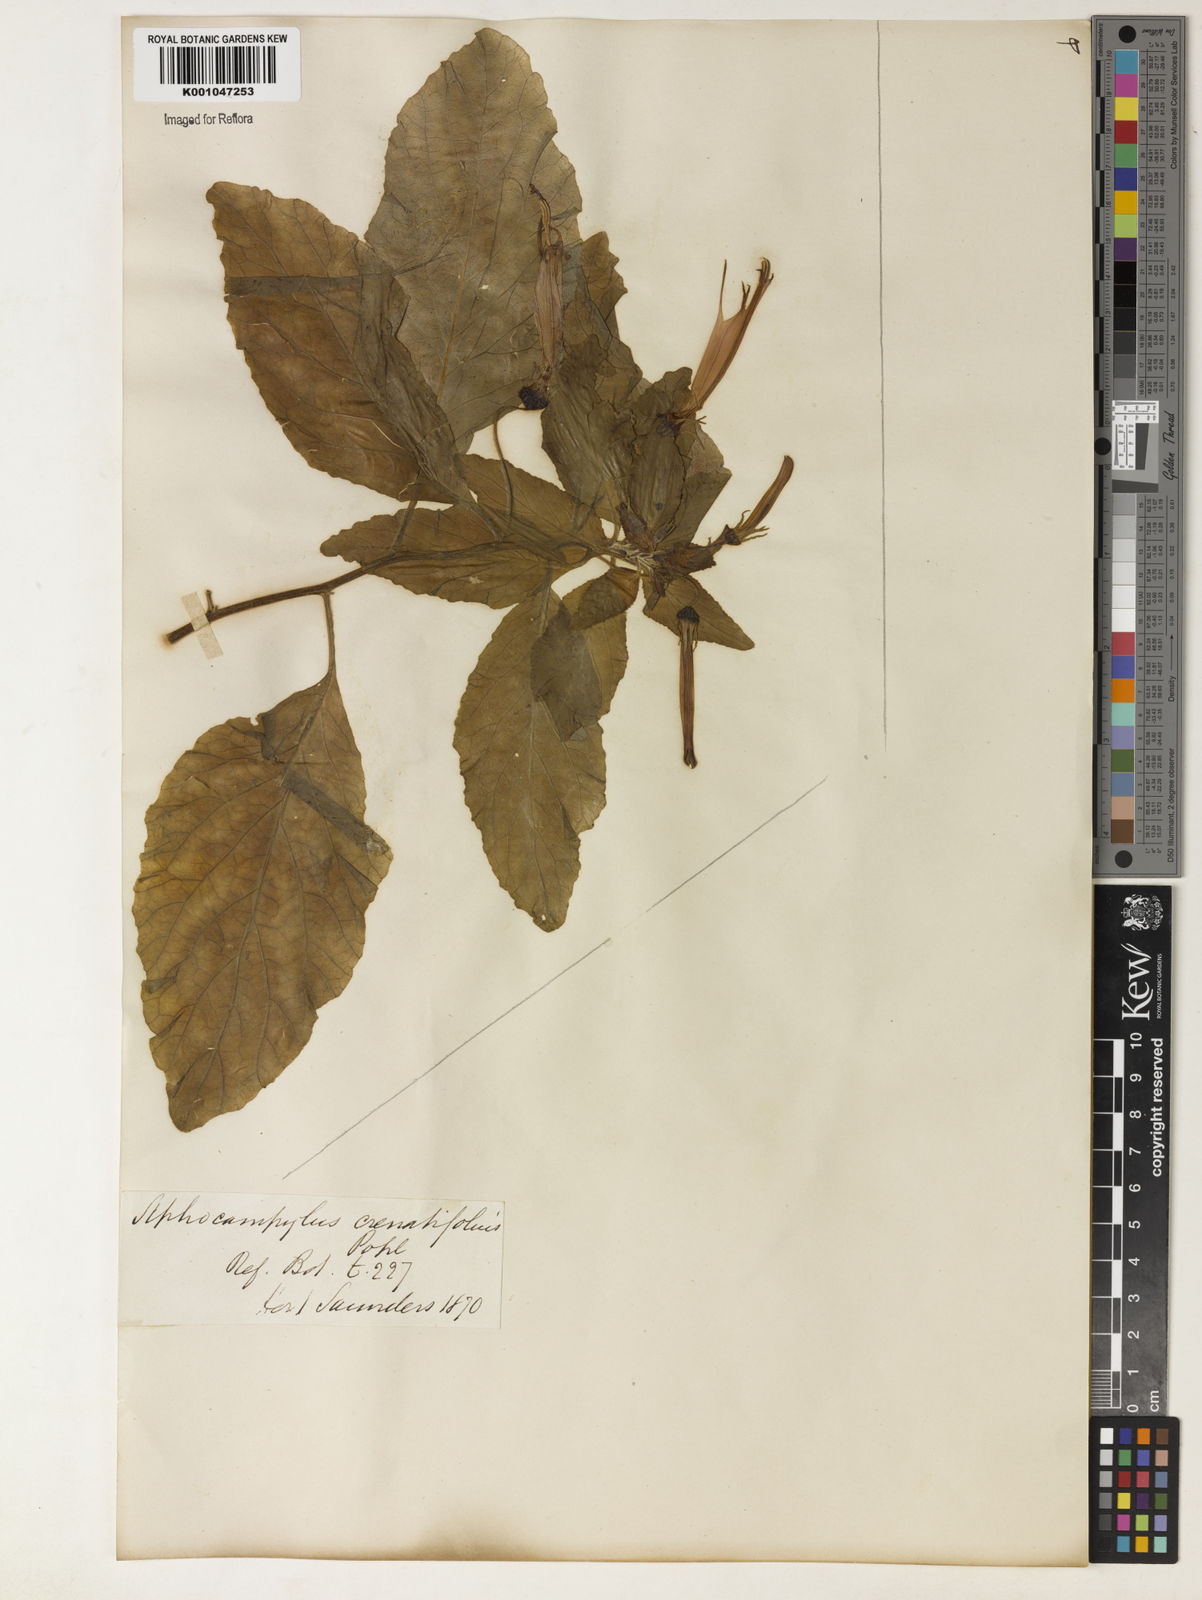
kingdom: Plantae
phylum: Tracheophyta
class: Magnoliopsida
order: Asterales
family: Campanulaceae
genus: Siphocampylus
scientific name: Siphocampylus macropodus
